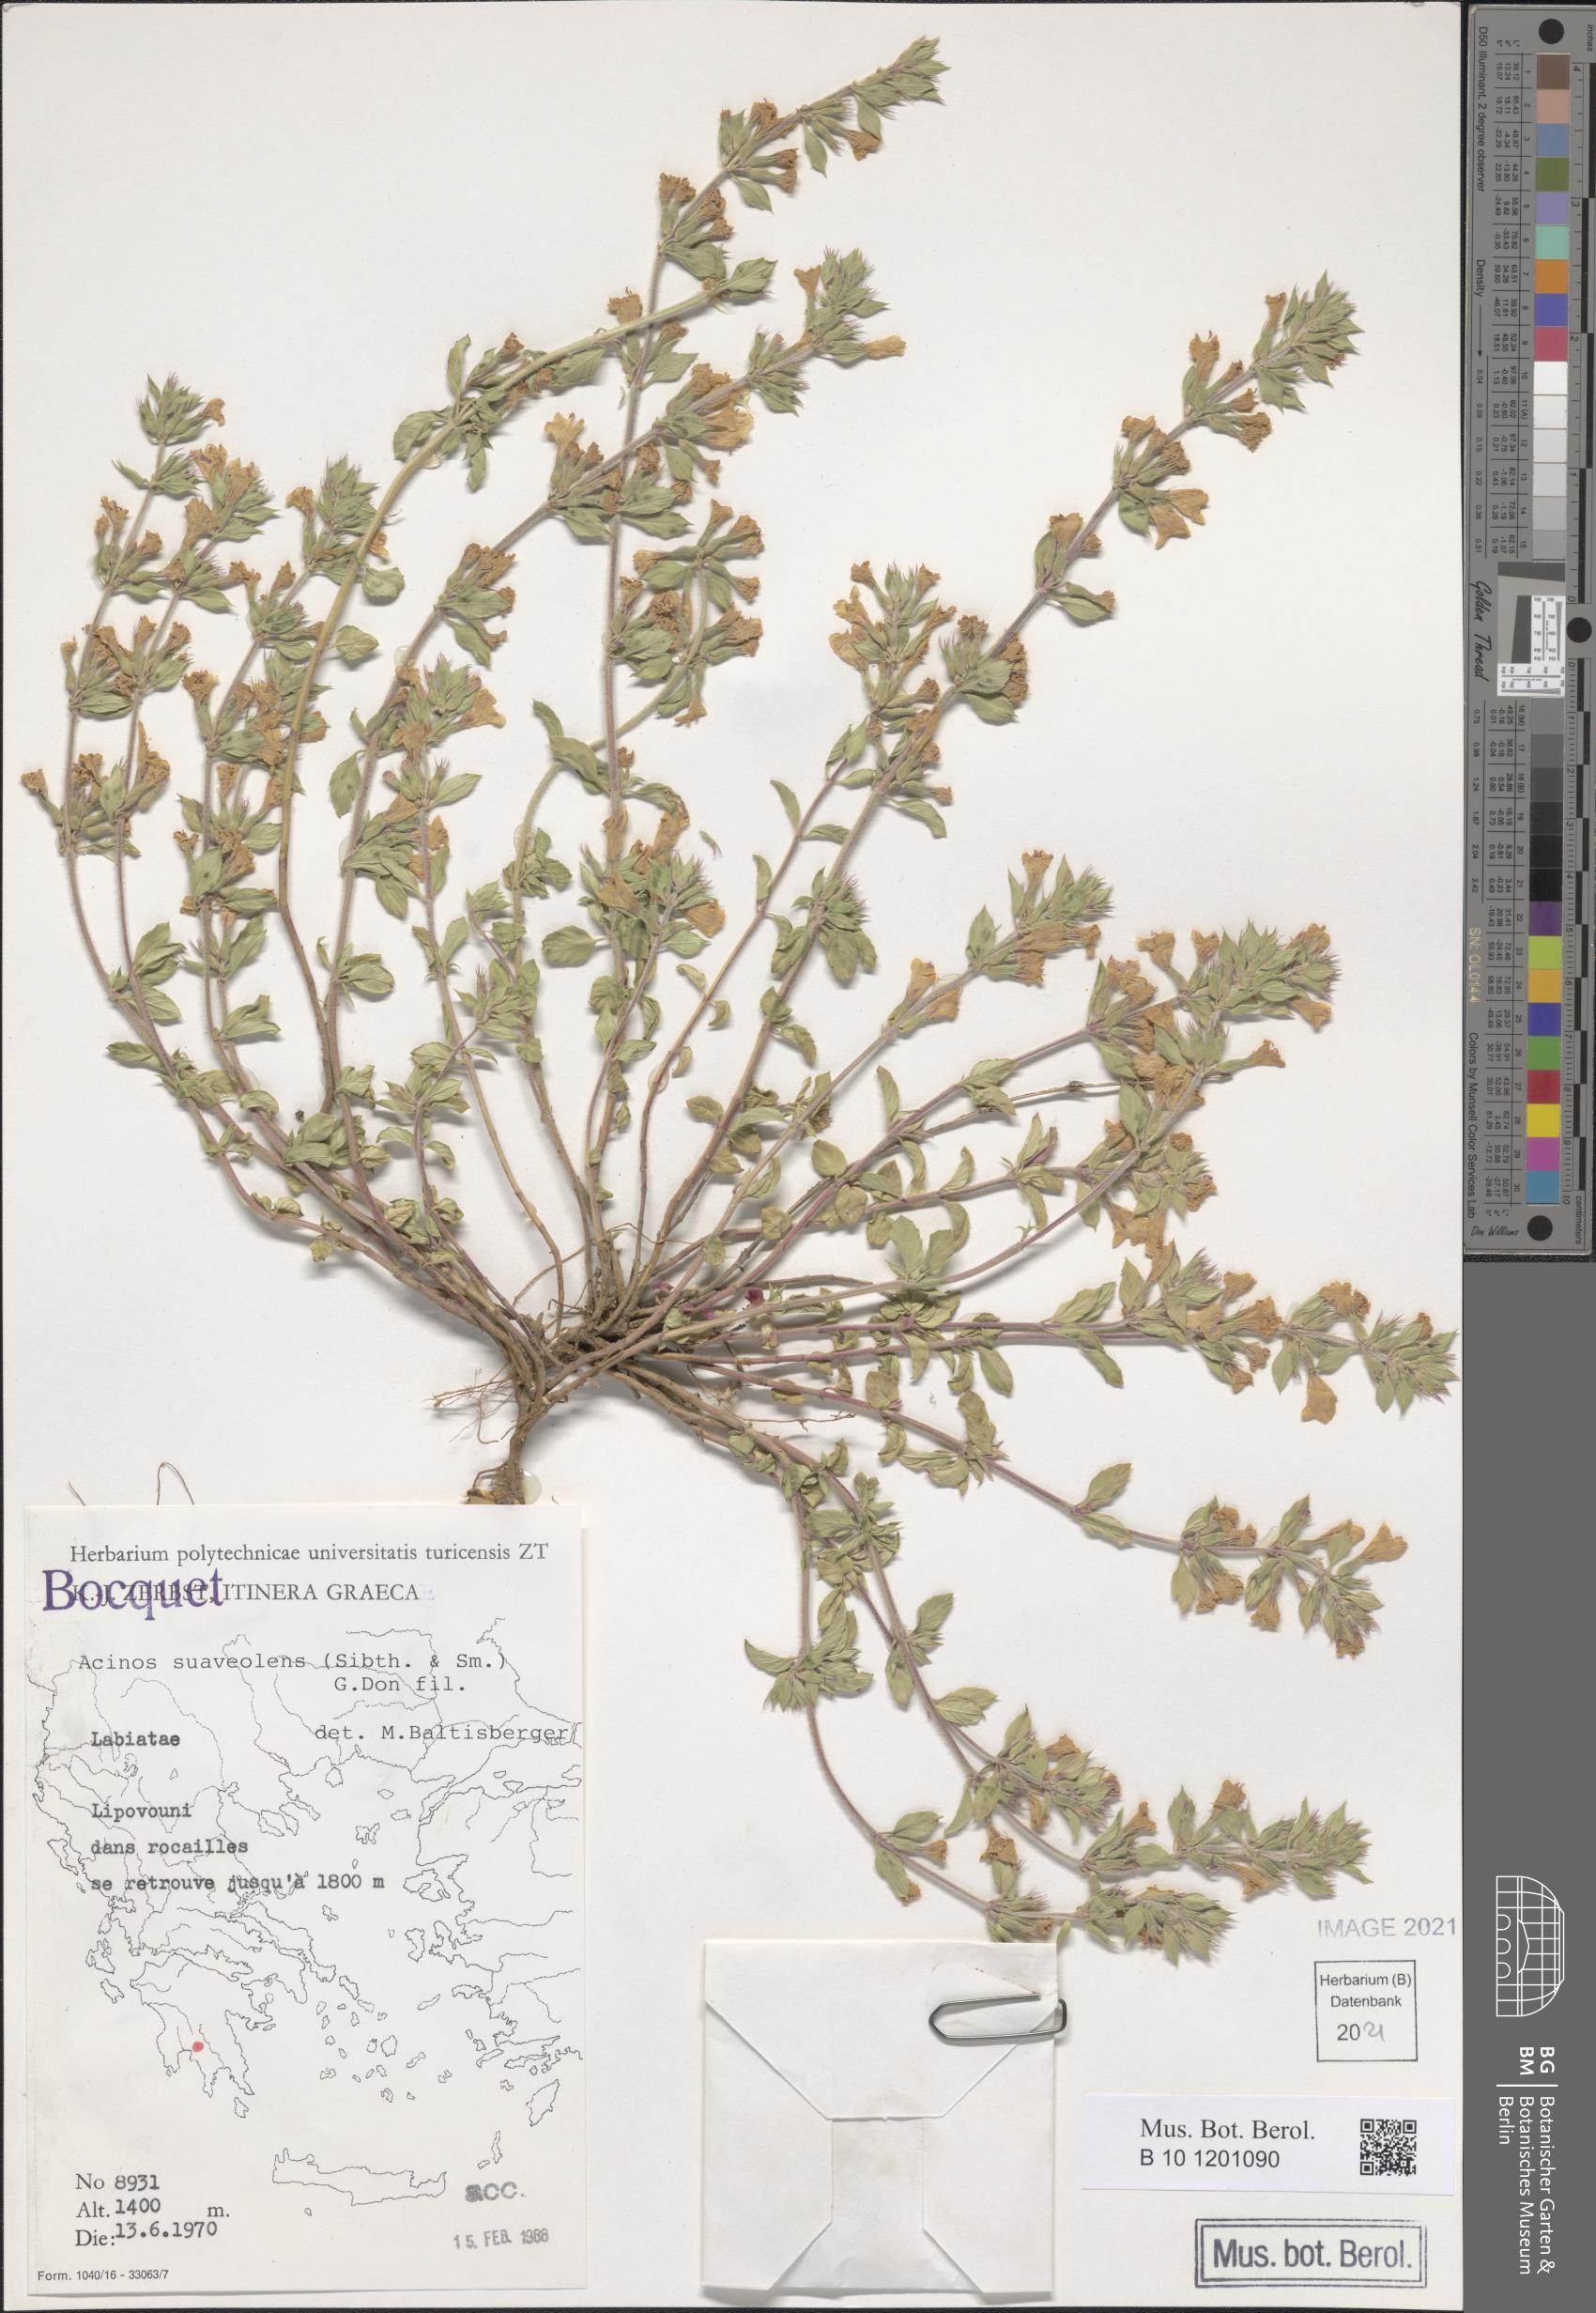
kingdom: Plantae
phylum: Tracheophyta
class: Magnoliopsida
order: Lamiales
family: Lamiaceae
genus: Clinopodium
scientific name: Clinopodium suaveolens
